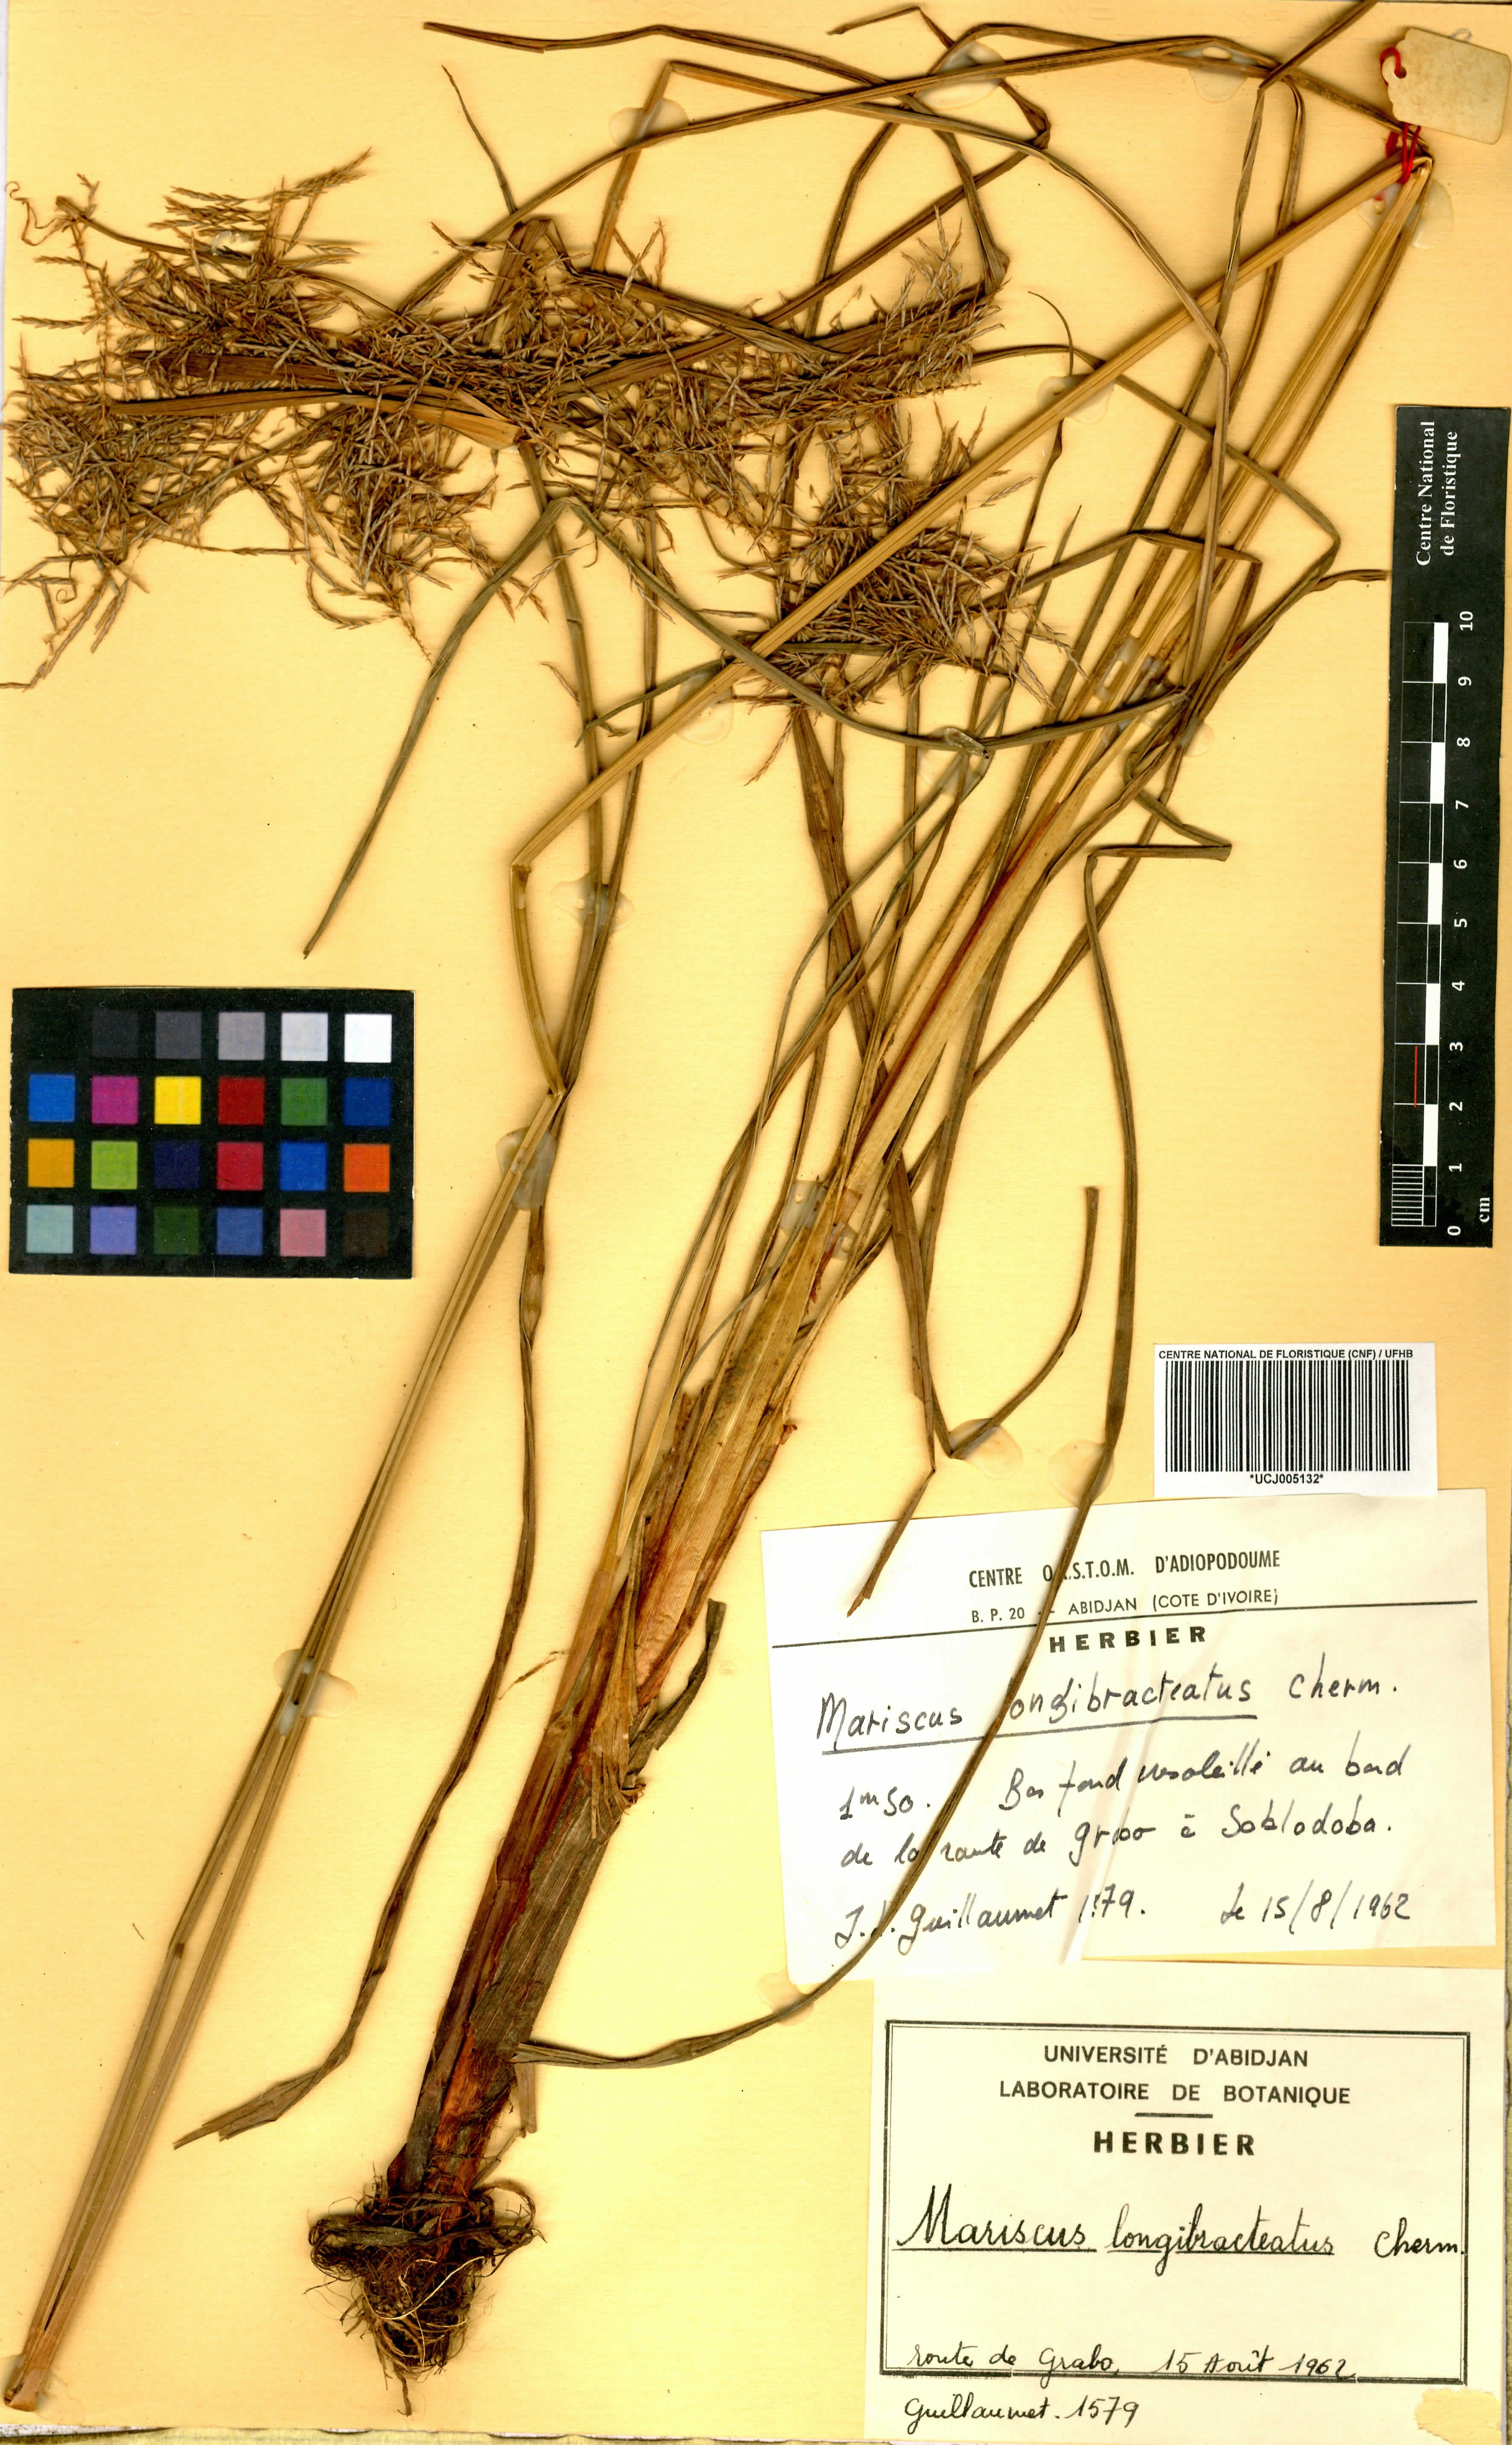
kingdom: Plantae
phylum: Tracheophyta
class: Liliopsida
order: Poales
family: Cyperaceae
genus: Cyperus
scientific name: Cyperus distans
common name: Slender cyperus
